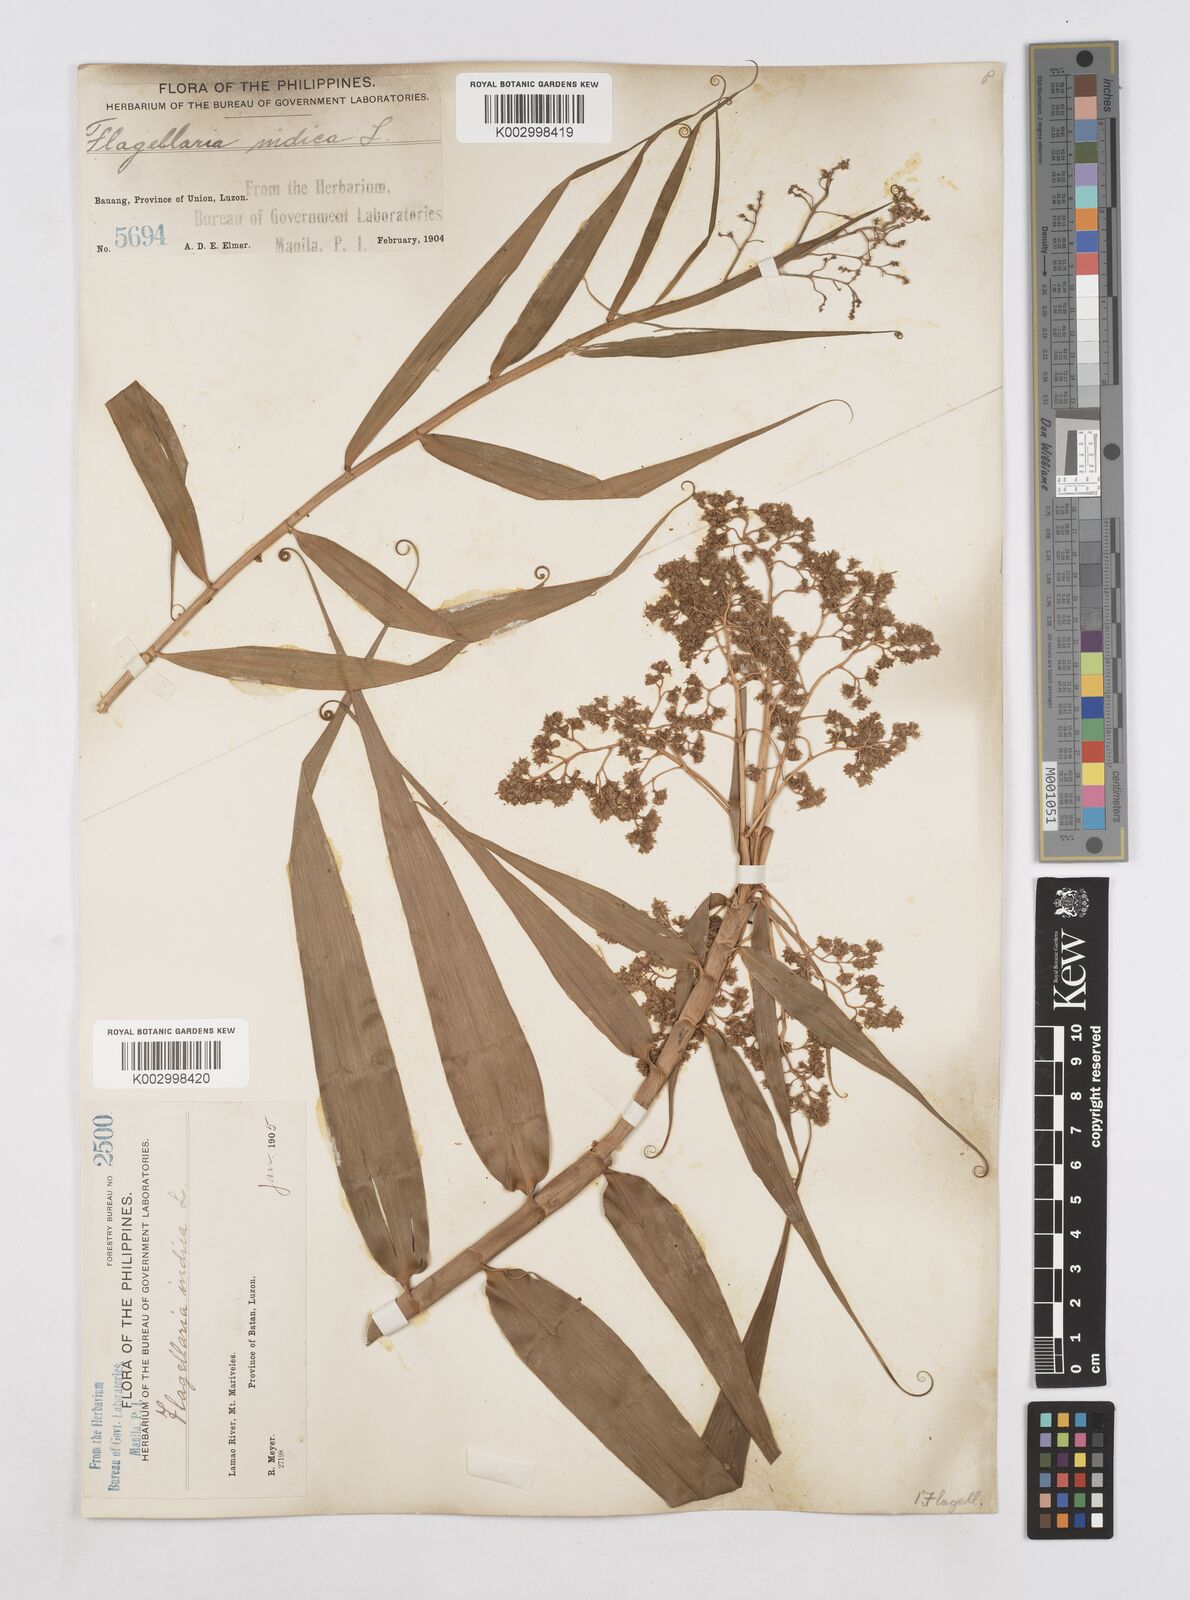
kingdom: Plantae
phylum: Tracheophyta
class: Liliopsida
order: Poales
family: Flagellariaceae
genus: Flagellaria
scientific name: Flagellaria indica
